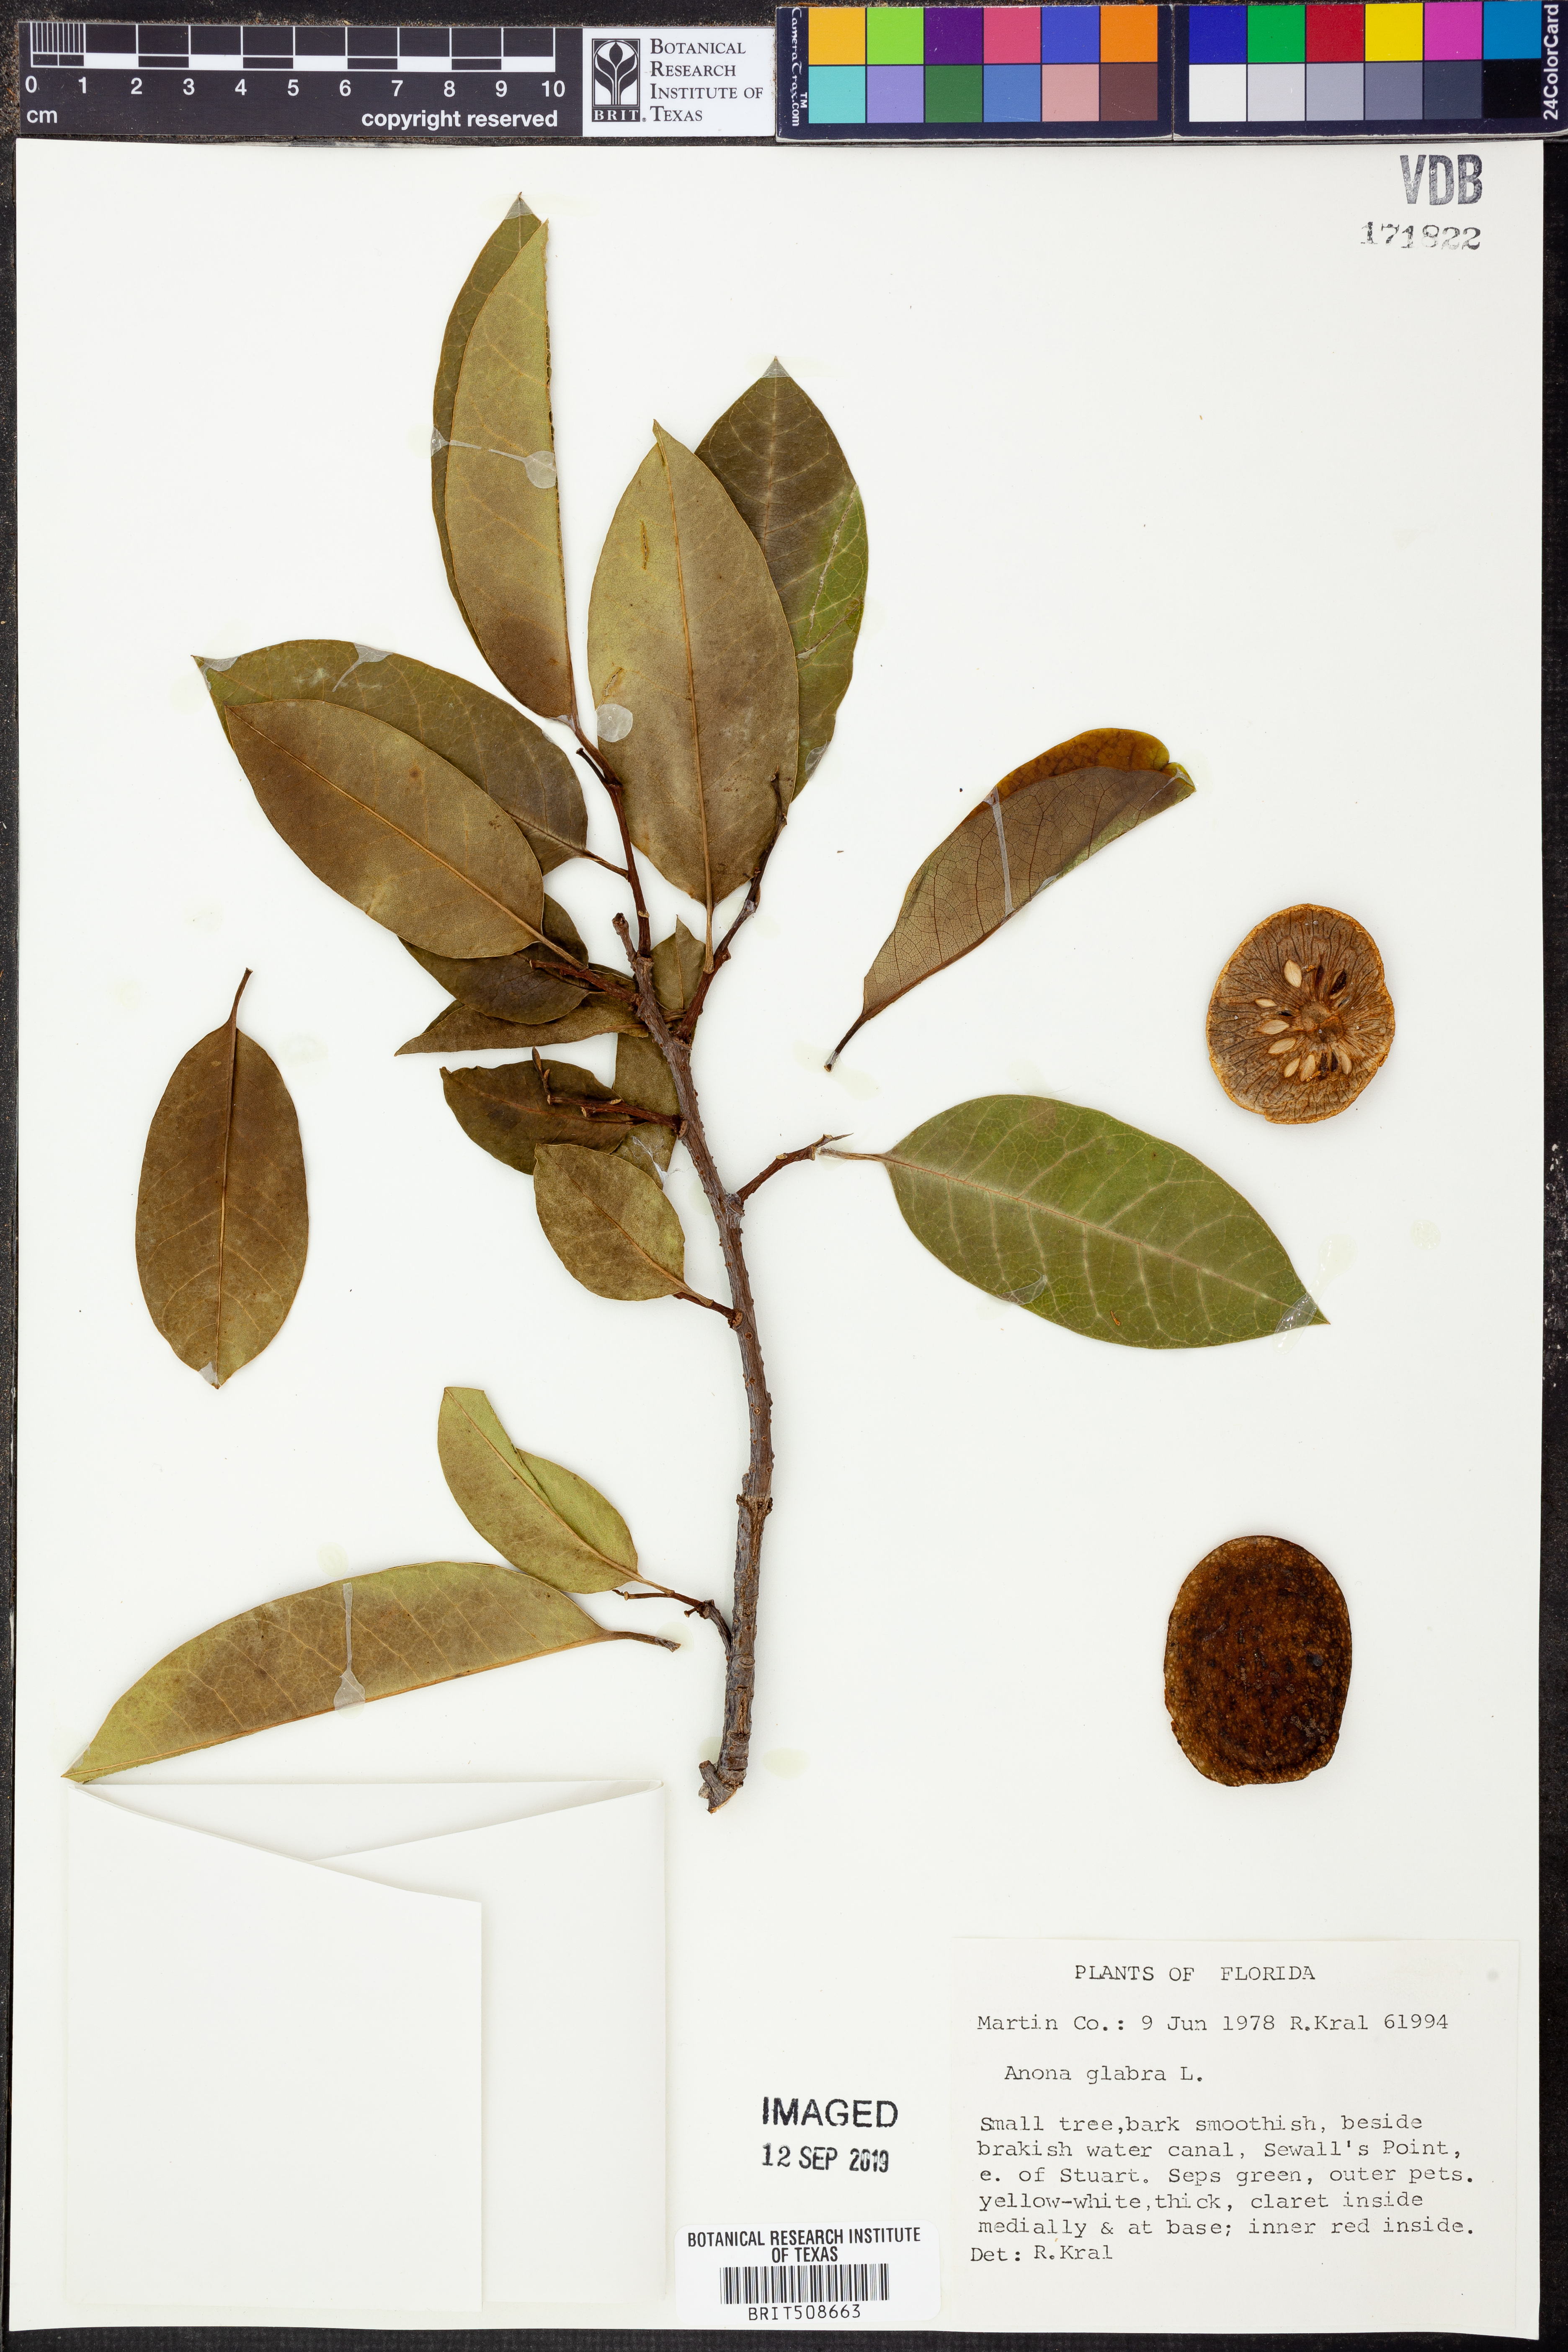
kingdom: Plantae
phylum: Tracheophyta
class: Magnoliopsida
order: Magnoliales
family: Annonaceae
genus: Annona
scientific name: Annona glabra
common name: Monkey apple
